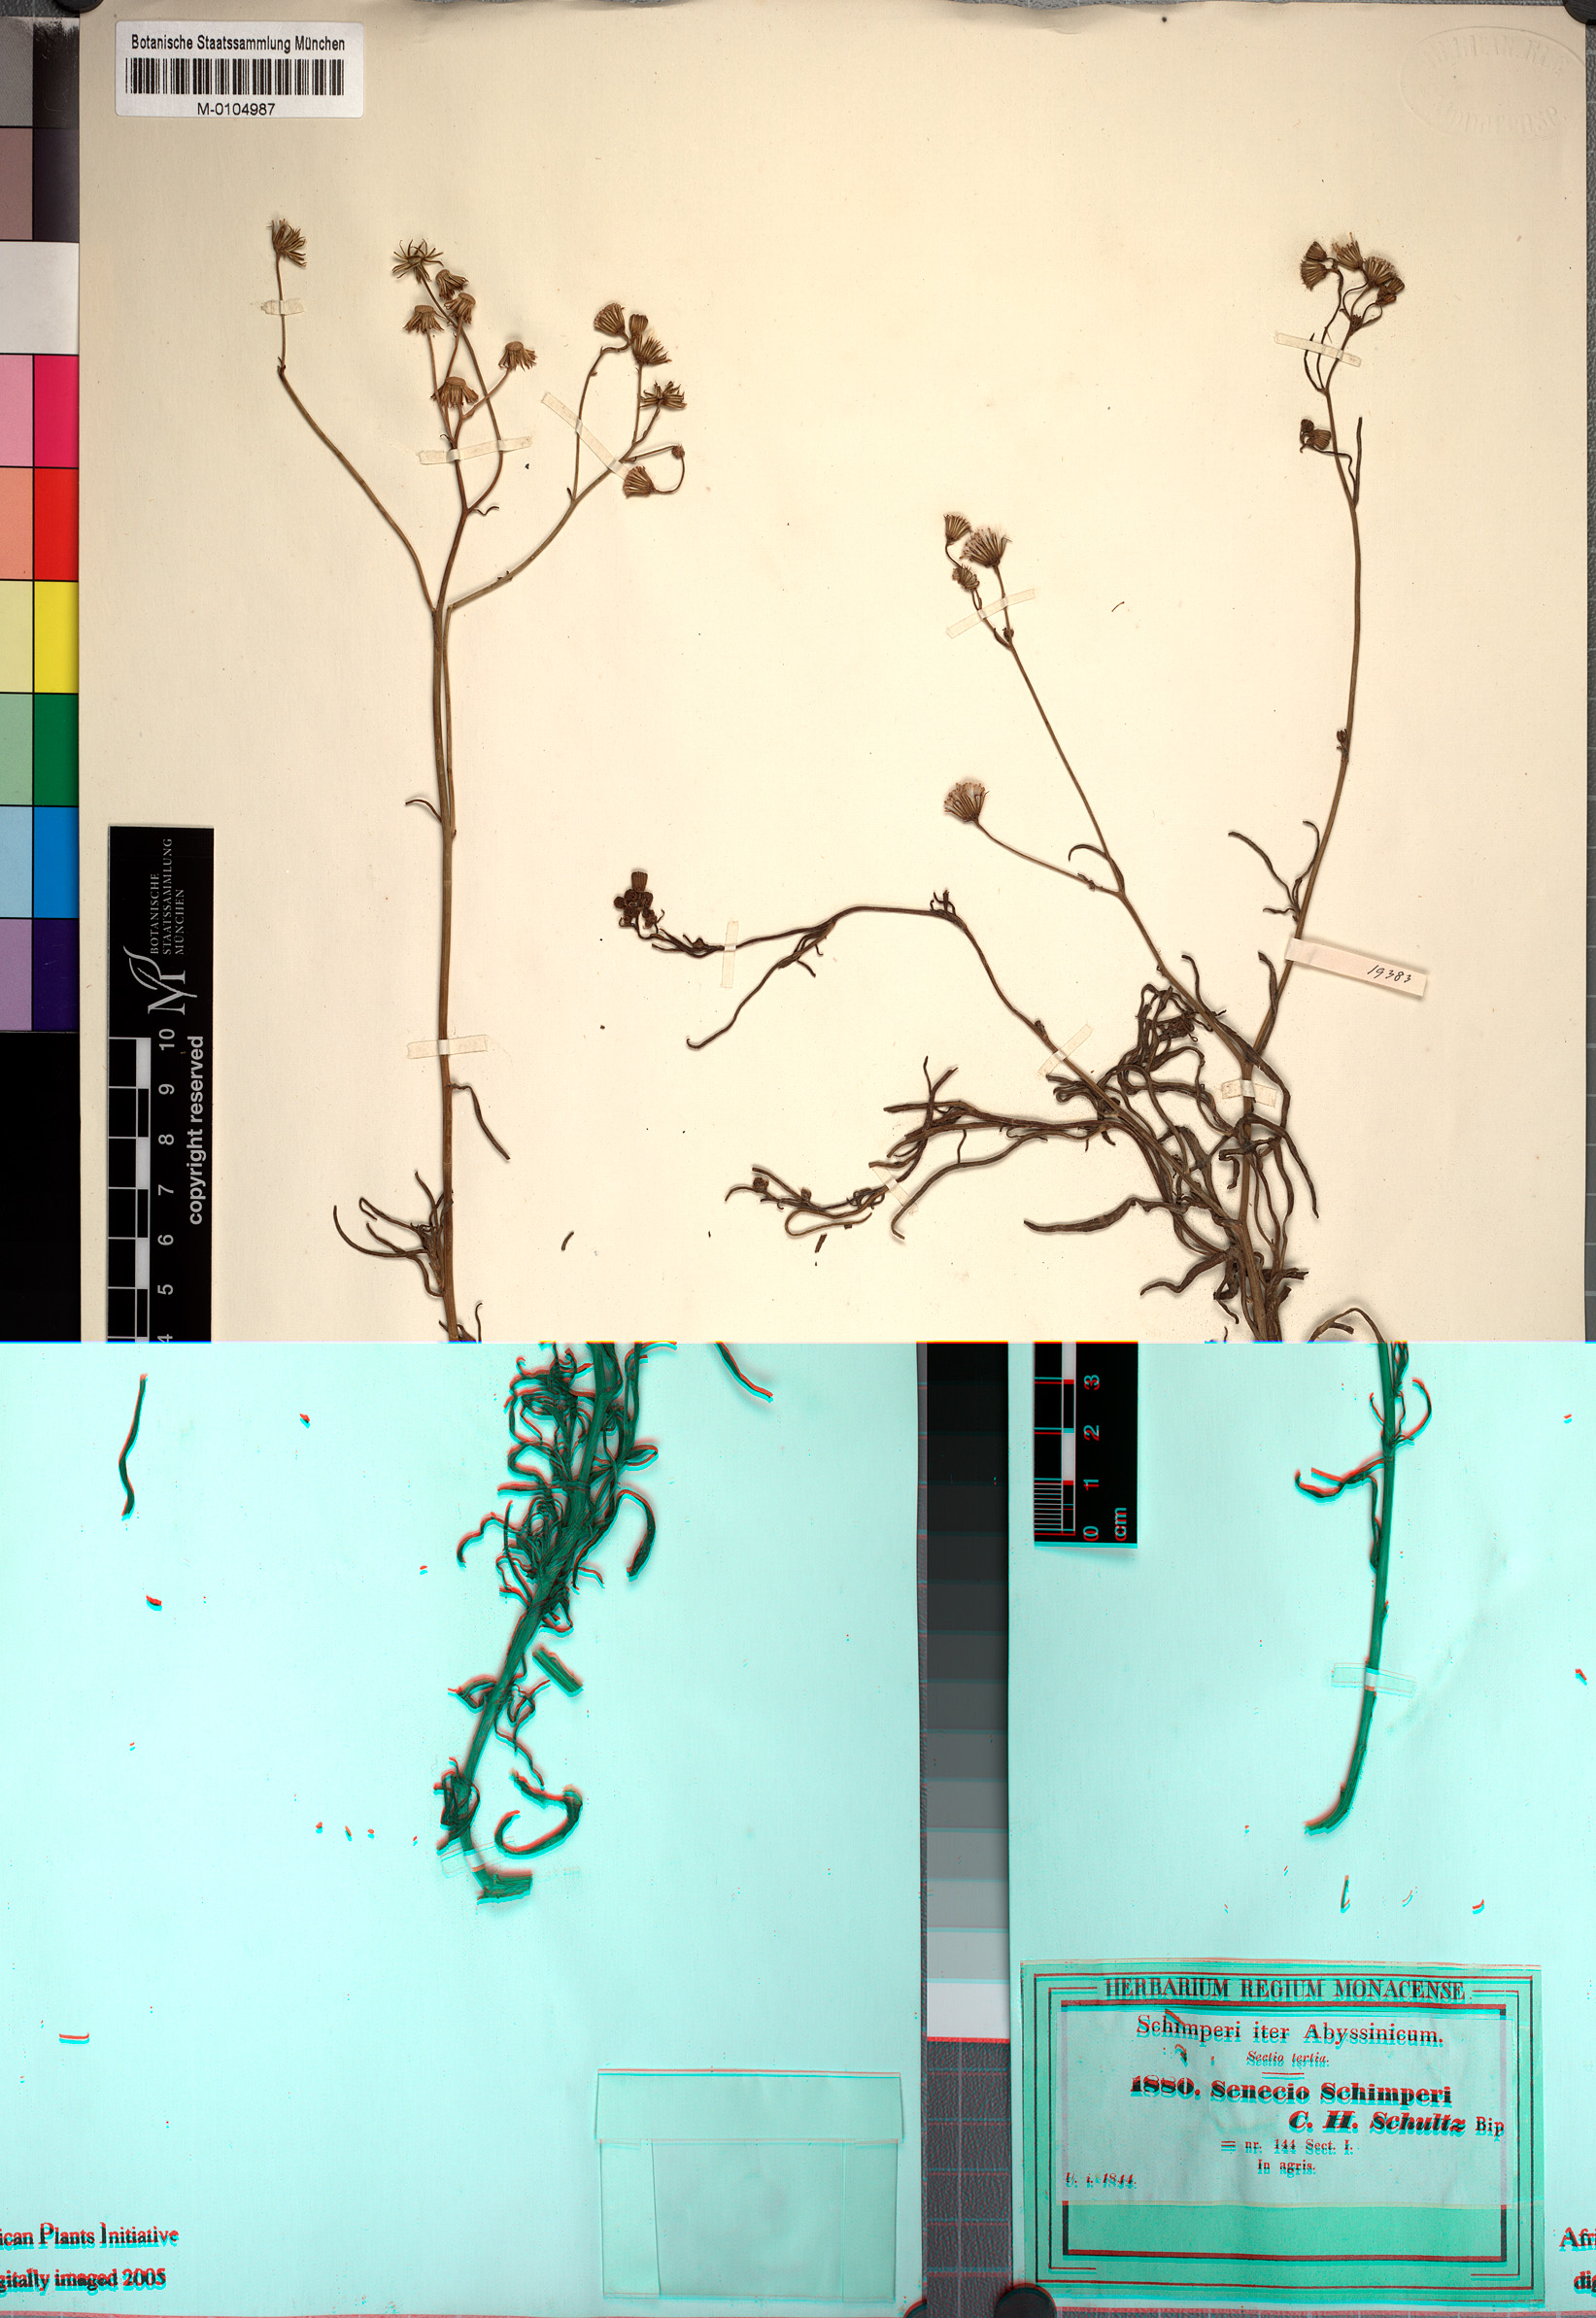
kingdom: Plantae
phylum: Tracheophyta
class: Magnoliopsida
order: Asterales
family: Asteraceae
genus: Senecio
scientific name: Senecio schimperi
